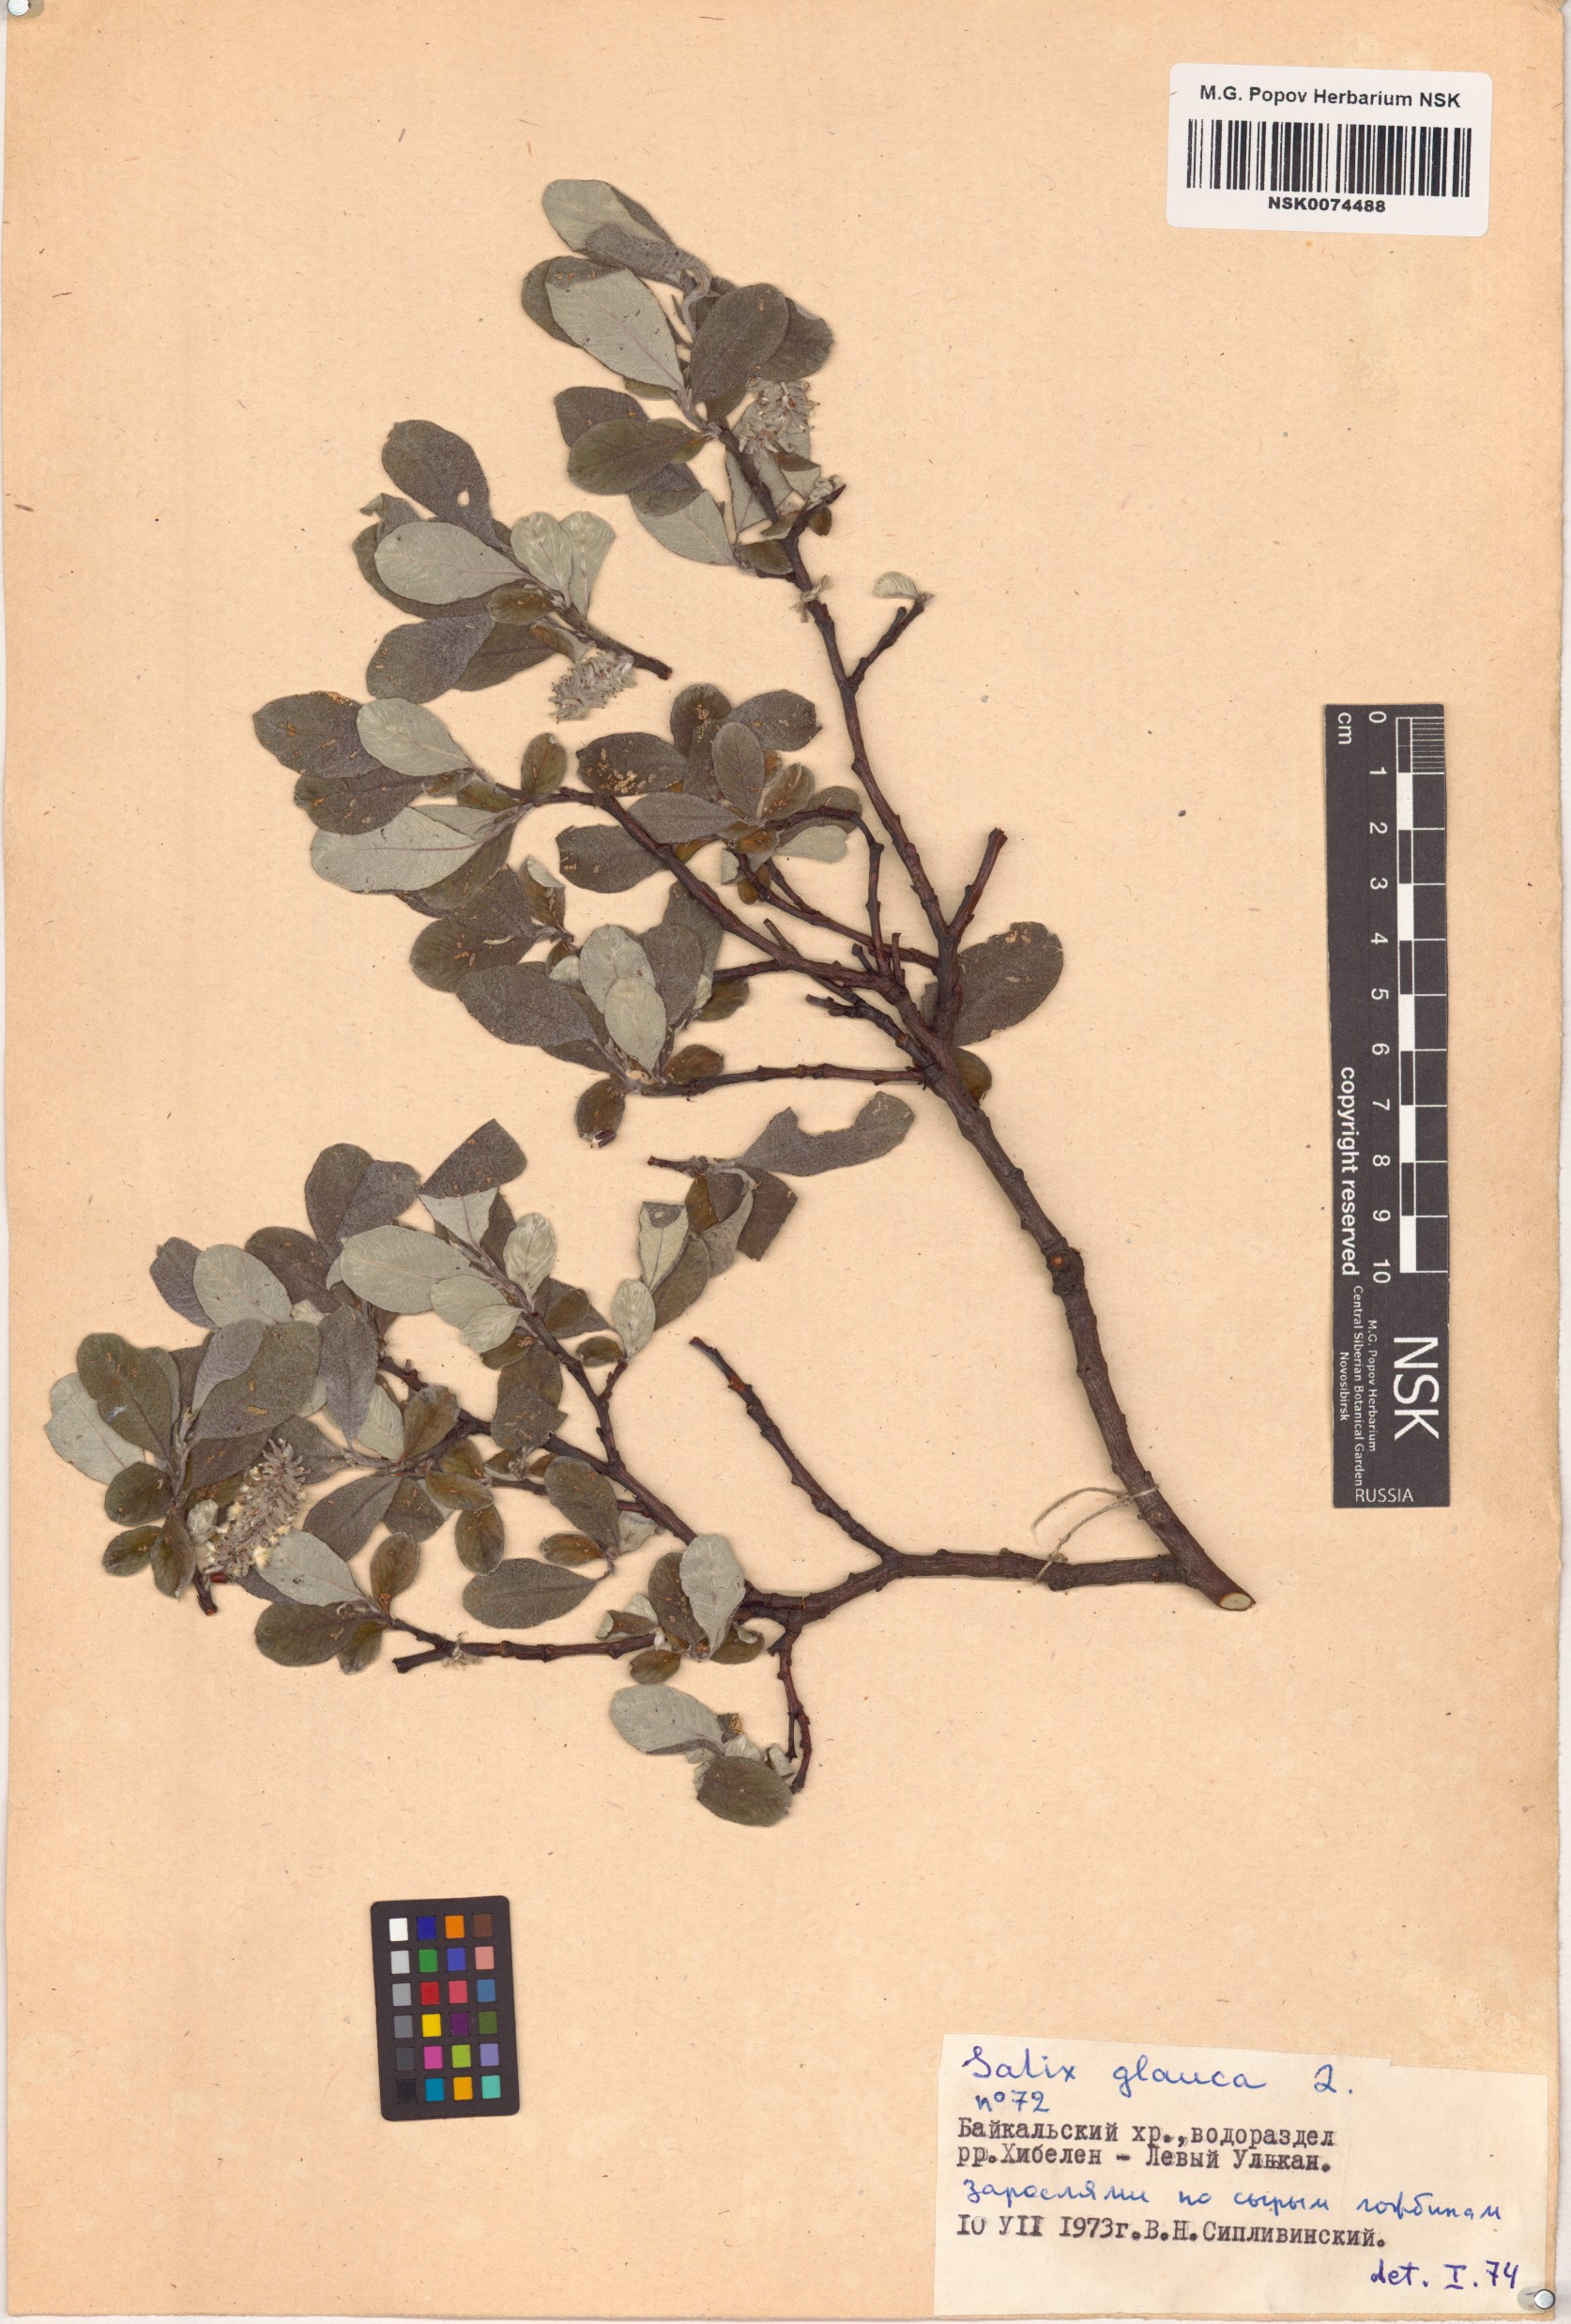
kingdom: Plantae
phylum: Tracheophyta
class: Magnoliopsida
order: Malpighiales
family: Salicaceae
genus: Salix
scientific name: Salix glauca
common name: Glaucous willow
